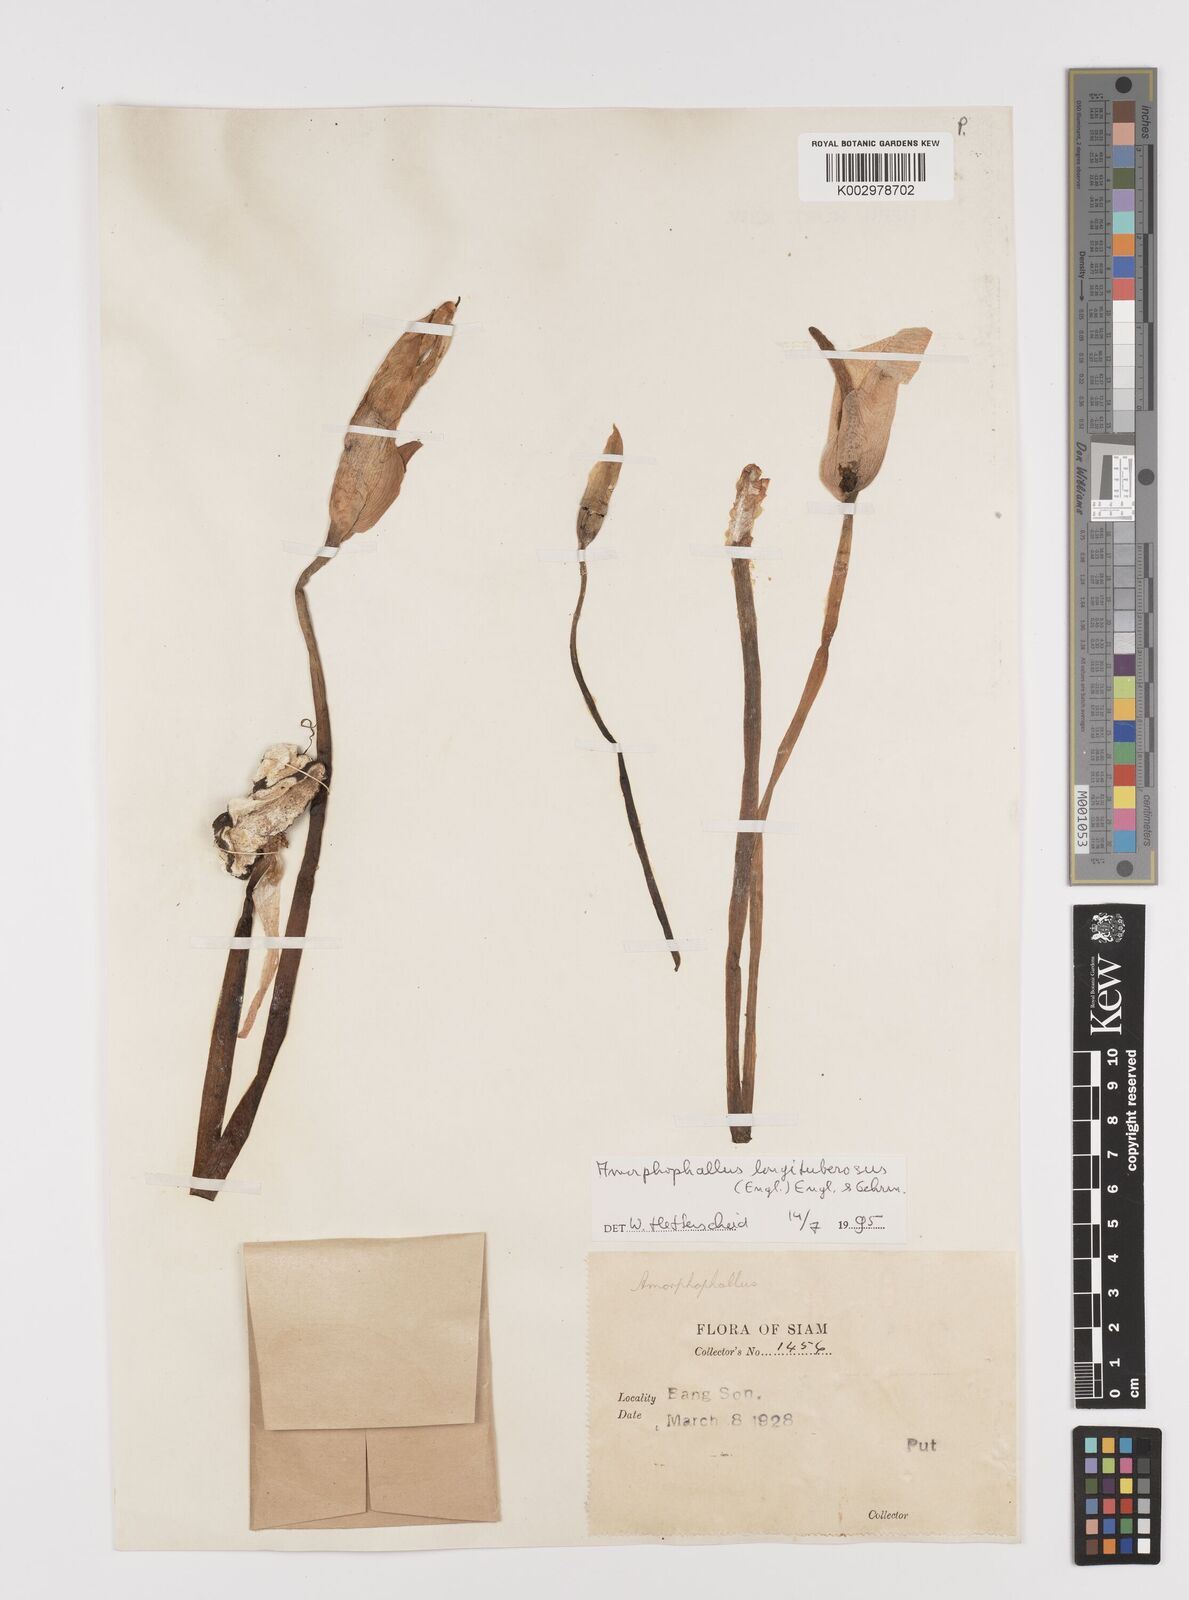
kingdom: Plantae
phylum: Tracheophyta
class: Liliopsida
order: Alismatales
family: Araceae
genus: Amorphophallus
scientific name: Amorphophallus longituberosus
